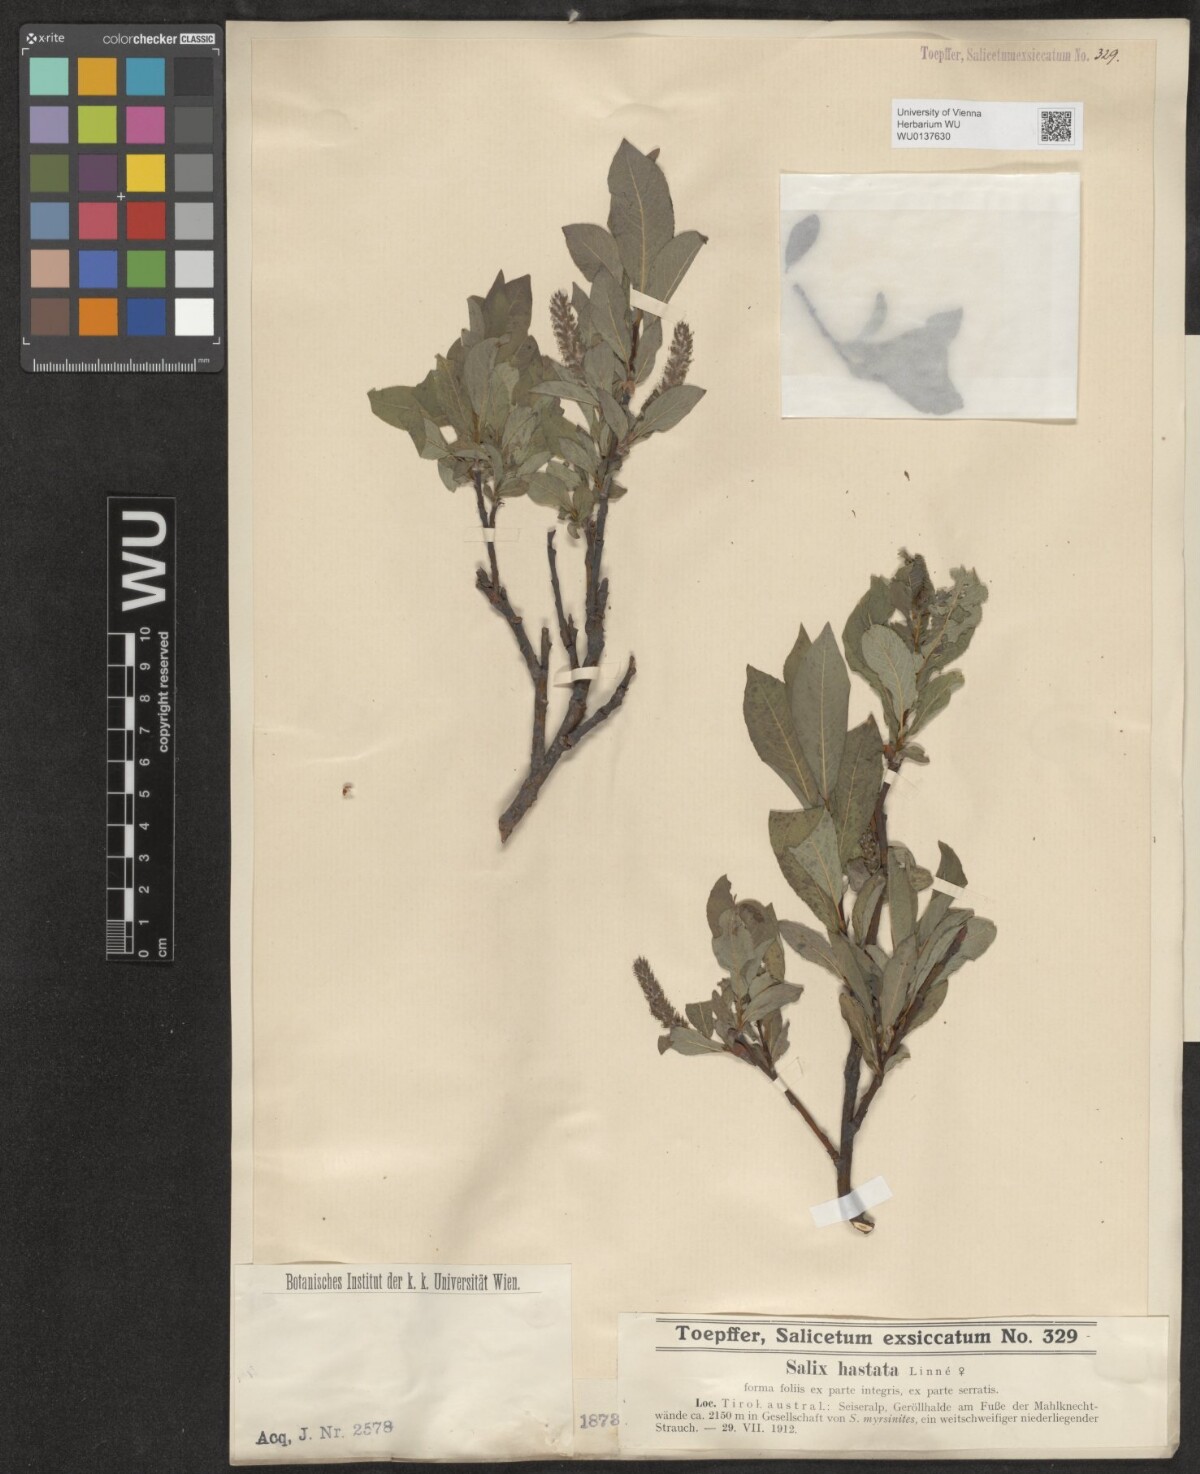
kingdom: Plantae
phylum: Tracheophyta
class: Magnoliopsida
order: Malpighiales
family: Salicaceae
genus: Salix
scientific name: Salix hastata
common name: Halberd willow
